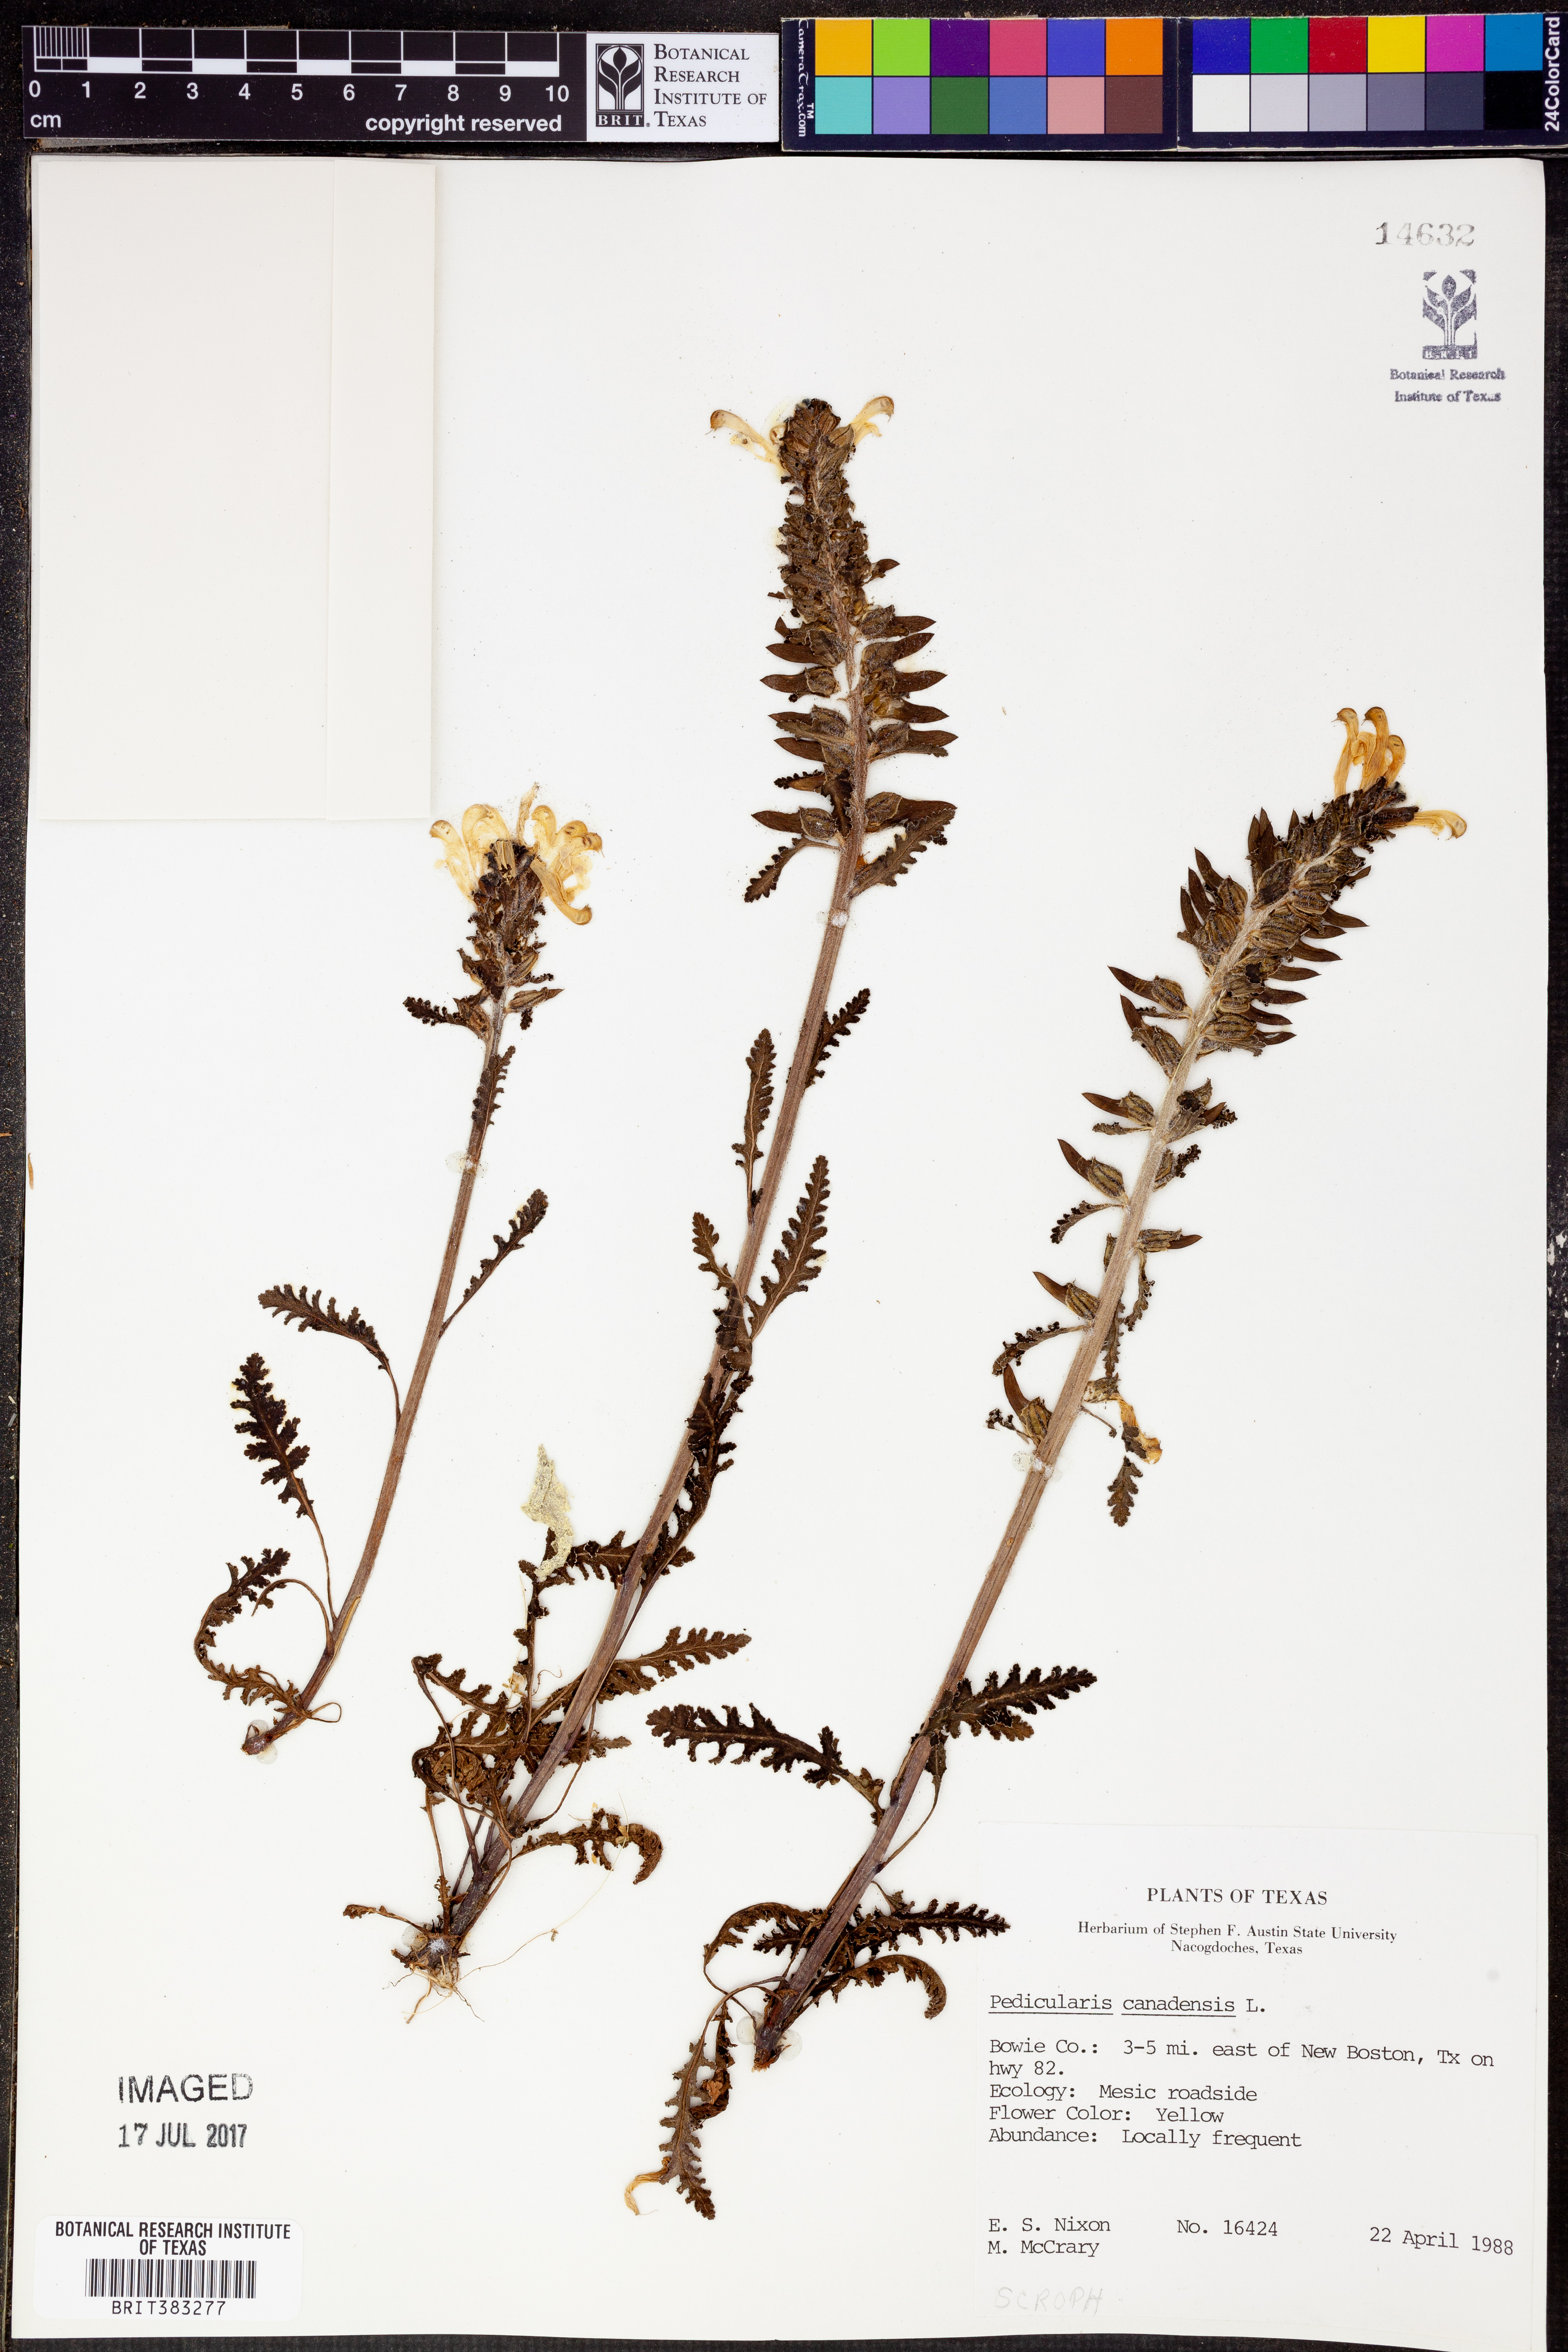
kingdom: Plantae
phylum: Tracheophyta
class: Magnoliopsida
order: Lamiales
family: Orobanchaceae
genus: Pedicularis
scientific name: Pedicularis canadensis
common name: Early lousewort
